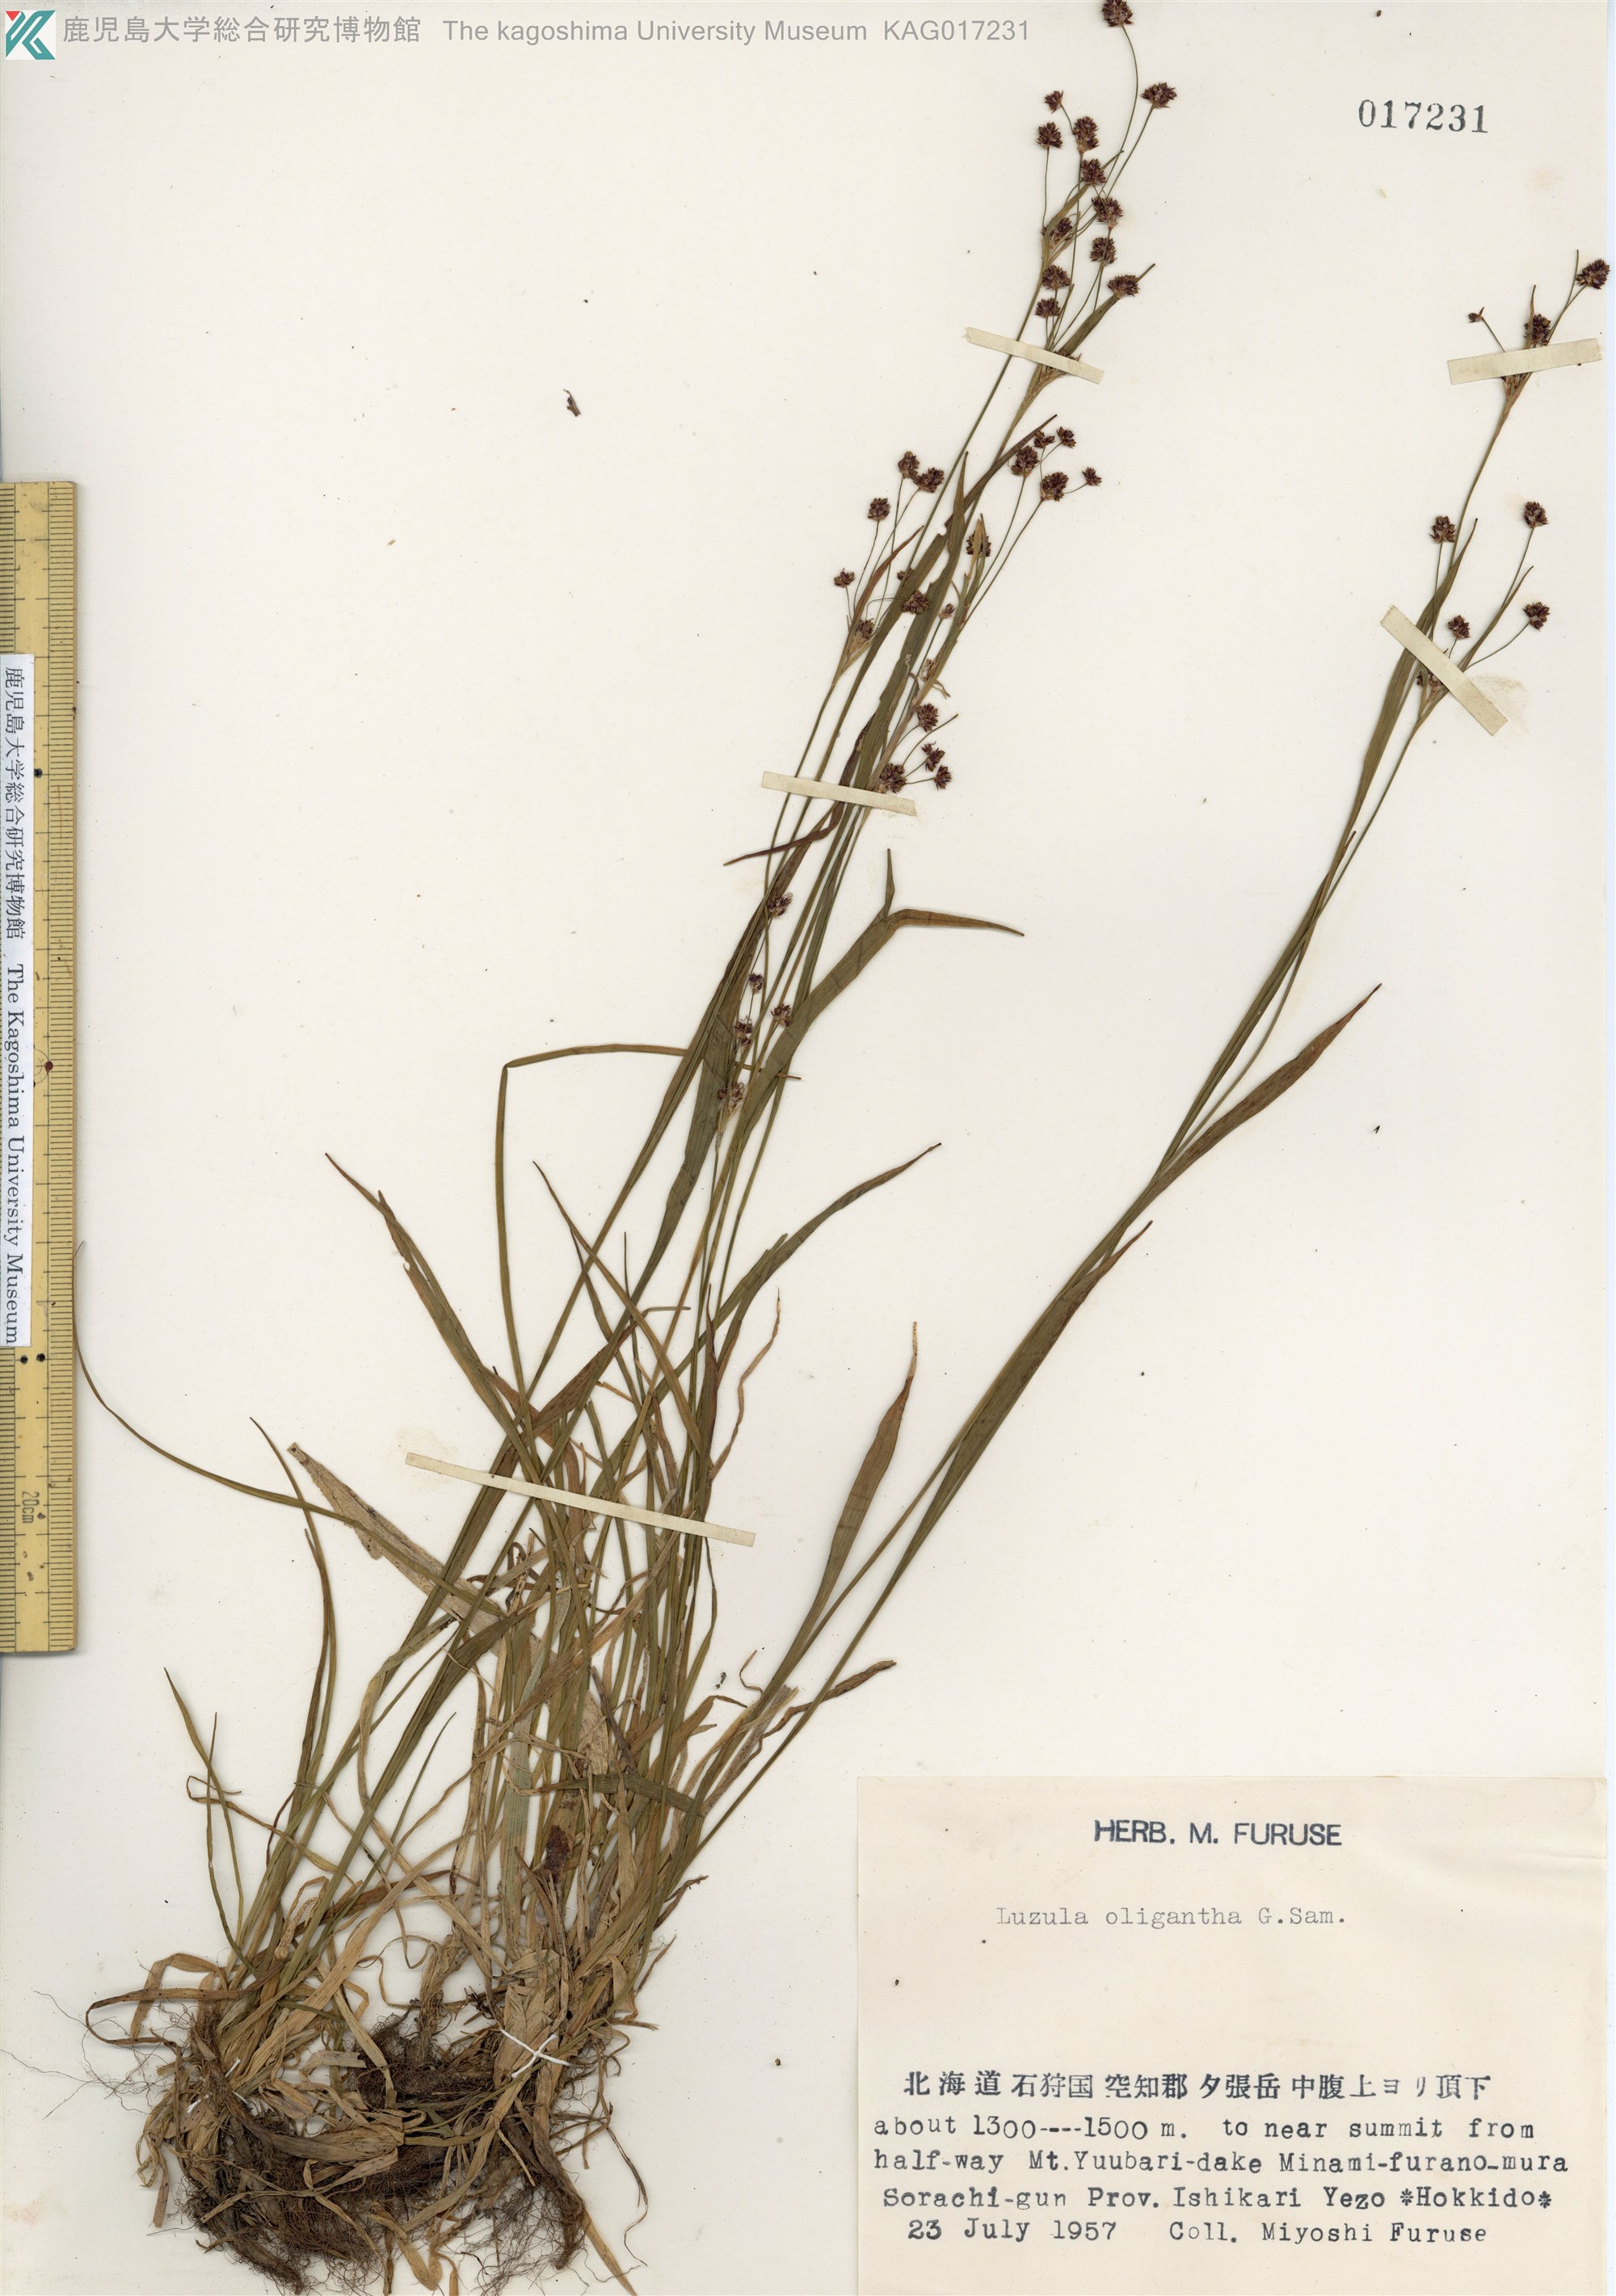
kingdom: Plantae
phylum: Tracheophyta
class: Liliopsida
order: Poales
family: Juncaceae
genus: Luzula
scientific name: Luzula oligantha
